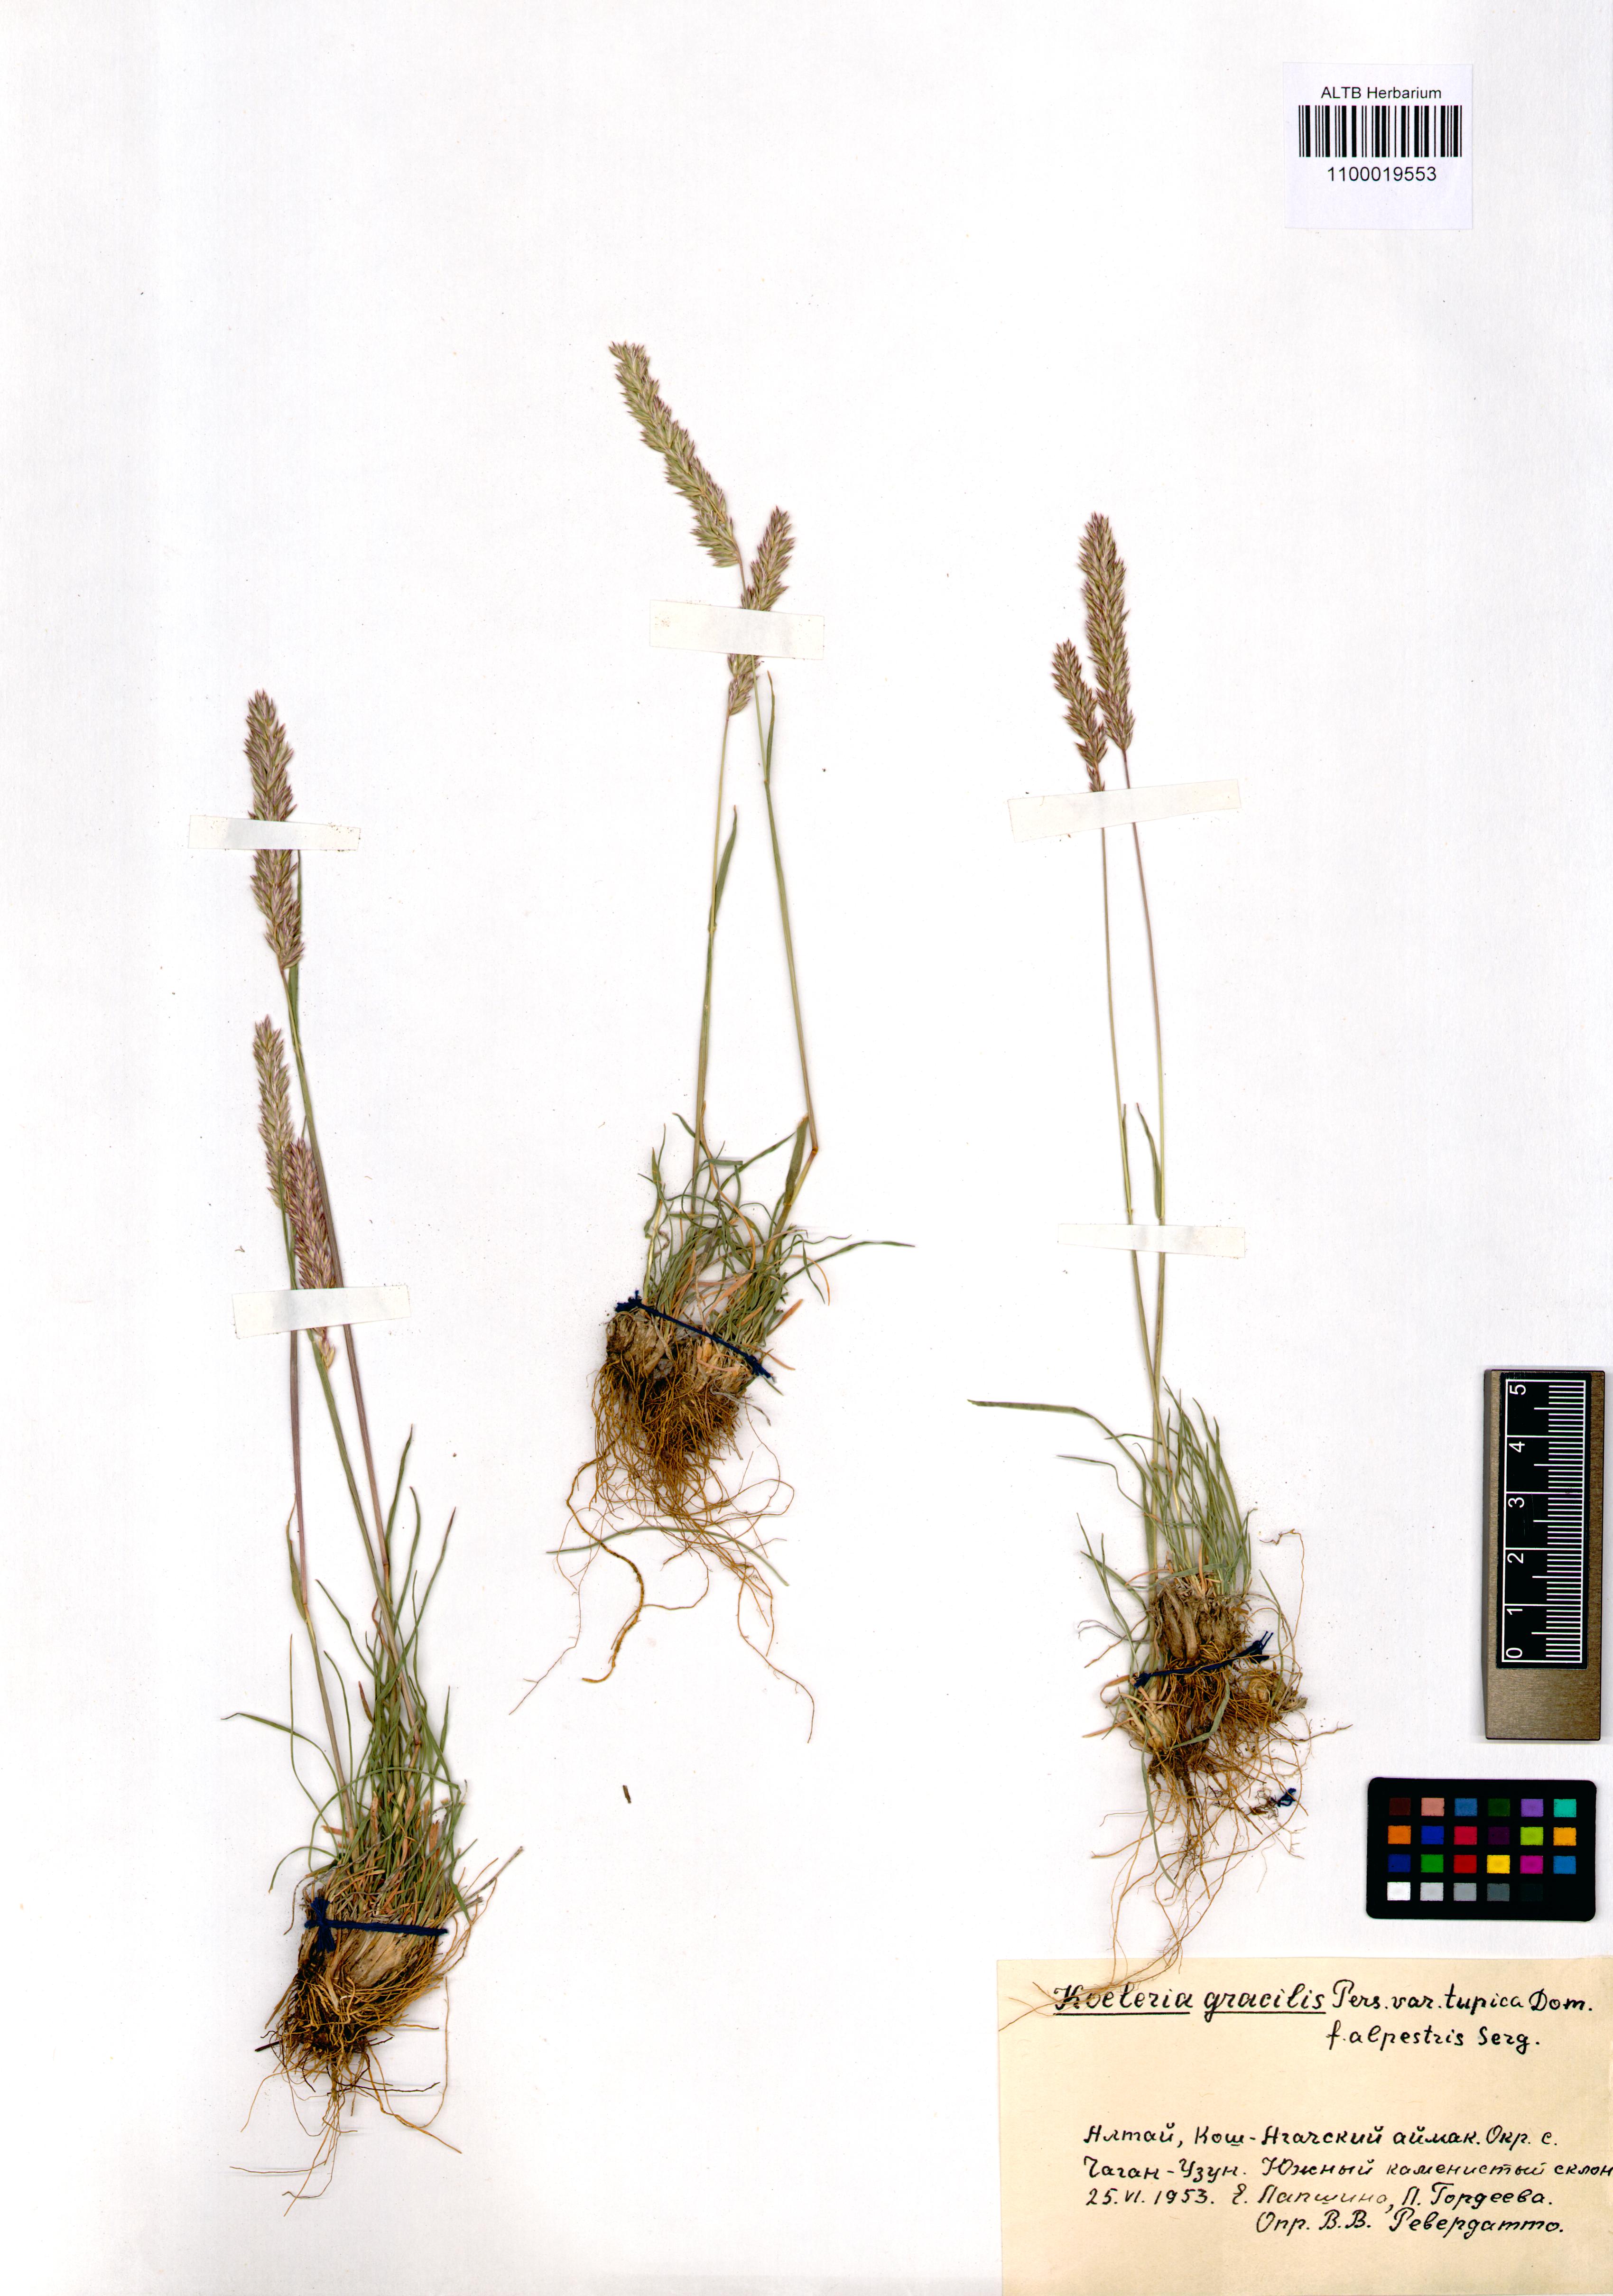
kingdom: Plantae
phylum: Tracheophyta
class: Liliopsida
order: Poales
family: Poaceae
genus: Koeleria
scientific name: Koeleria macrantha
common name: Crested hair-grass
